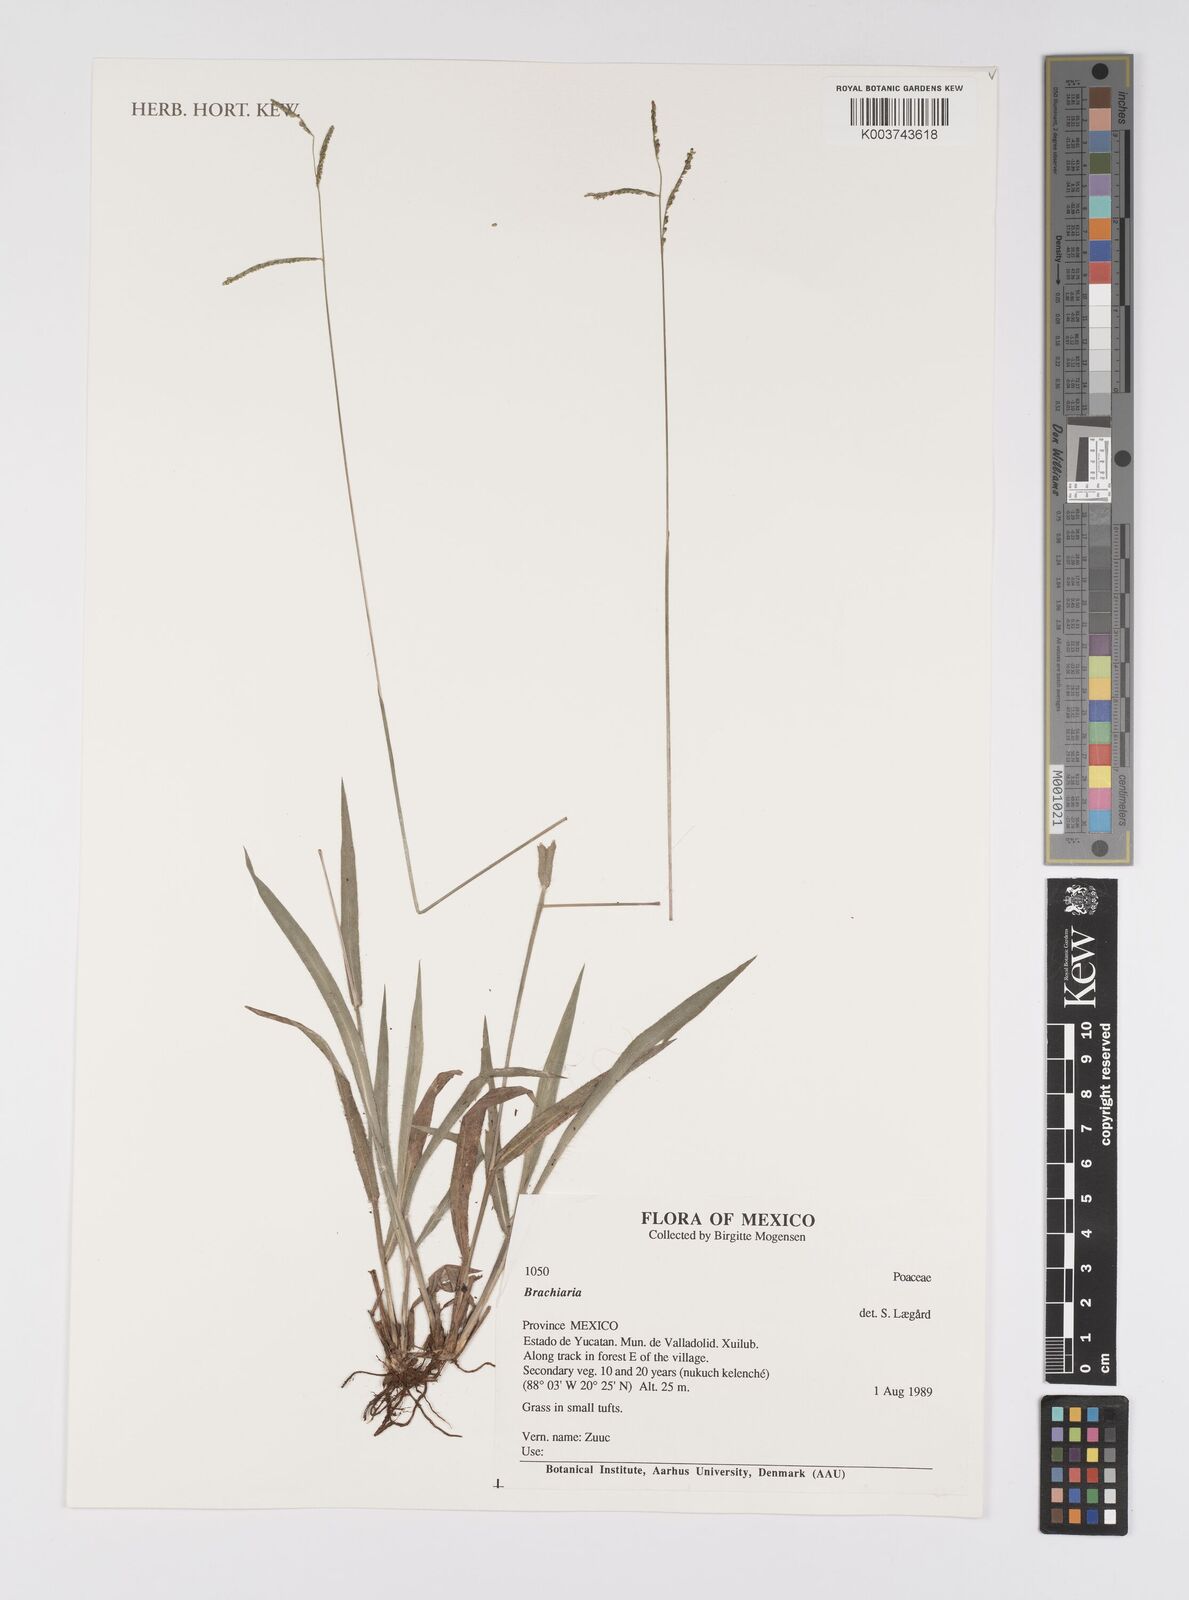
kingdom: Plantae
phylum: Tracheophyta
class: Liliopsida
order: Poales
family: Poaceae
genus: Brachiaria
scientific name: Brachiaria
